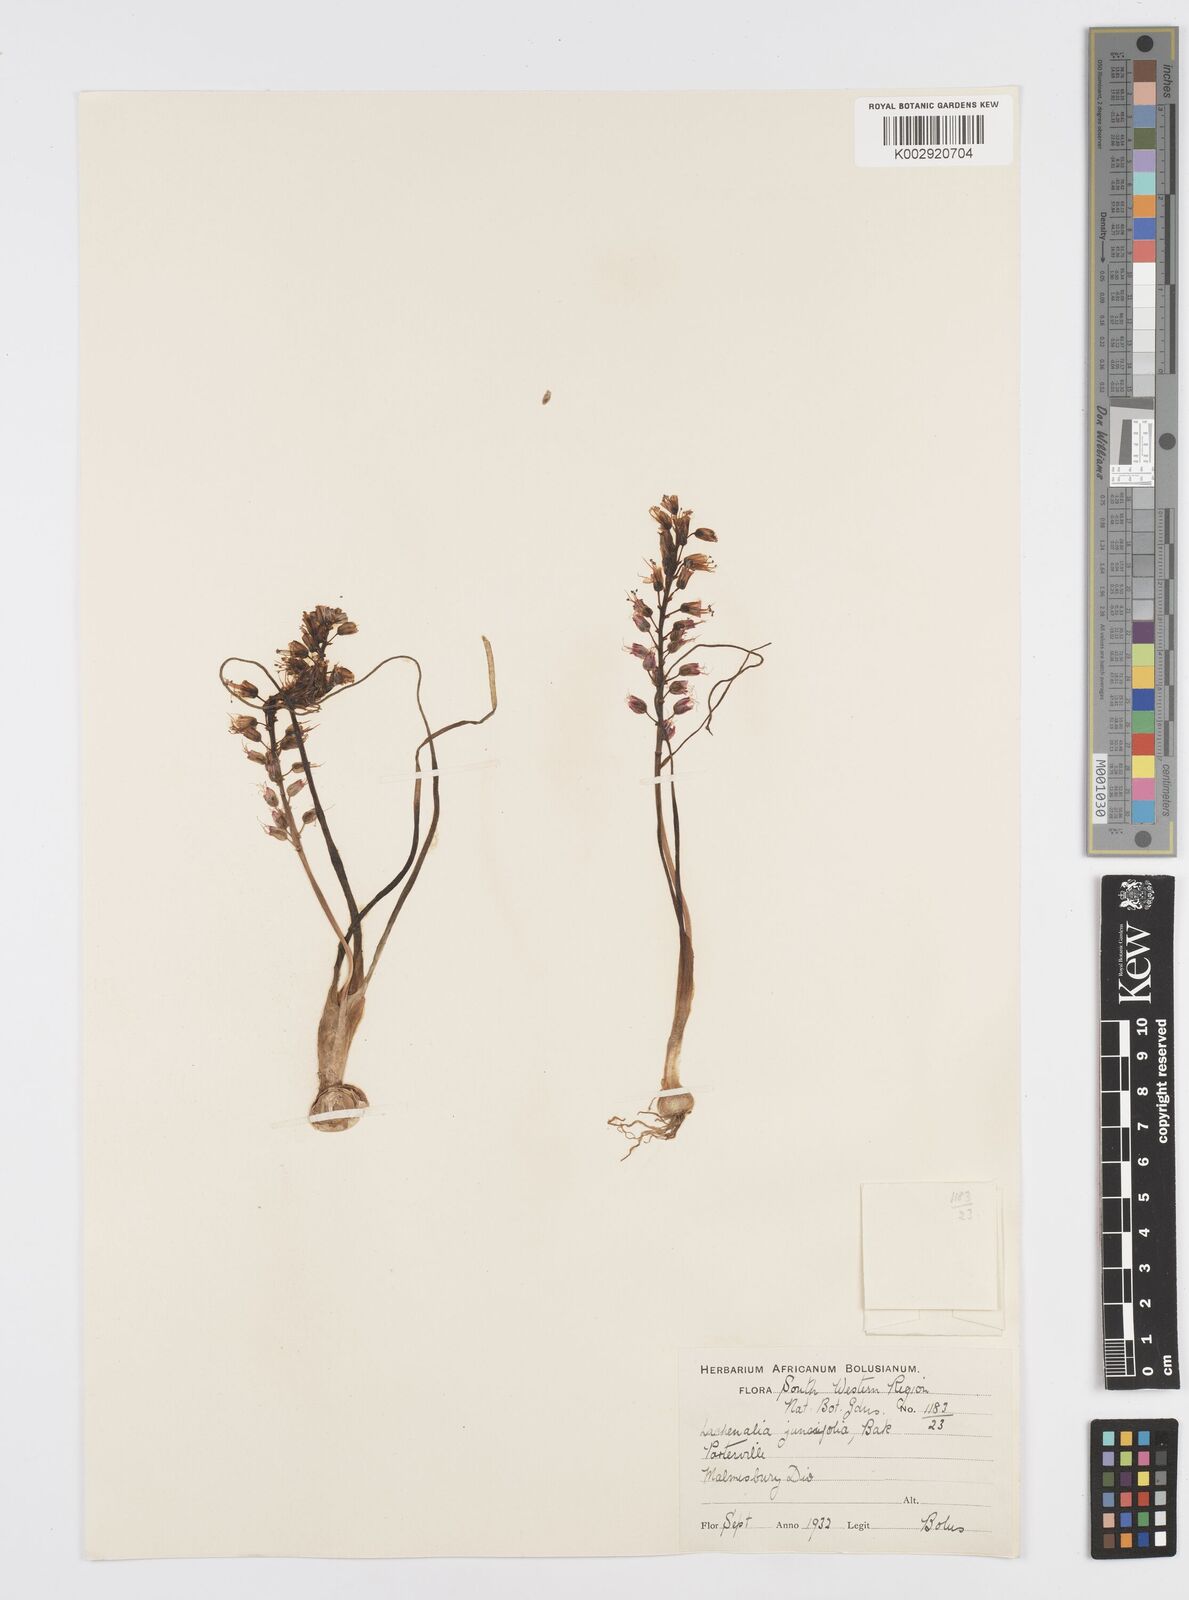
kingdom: Plantae
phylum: Tracheophyta
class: Liliopsida
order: Asparagales
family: Asparagaceae
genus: Lachenalia
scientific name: Lachenalia juncifolia
